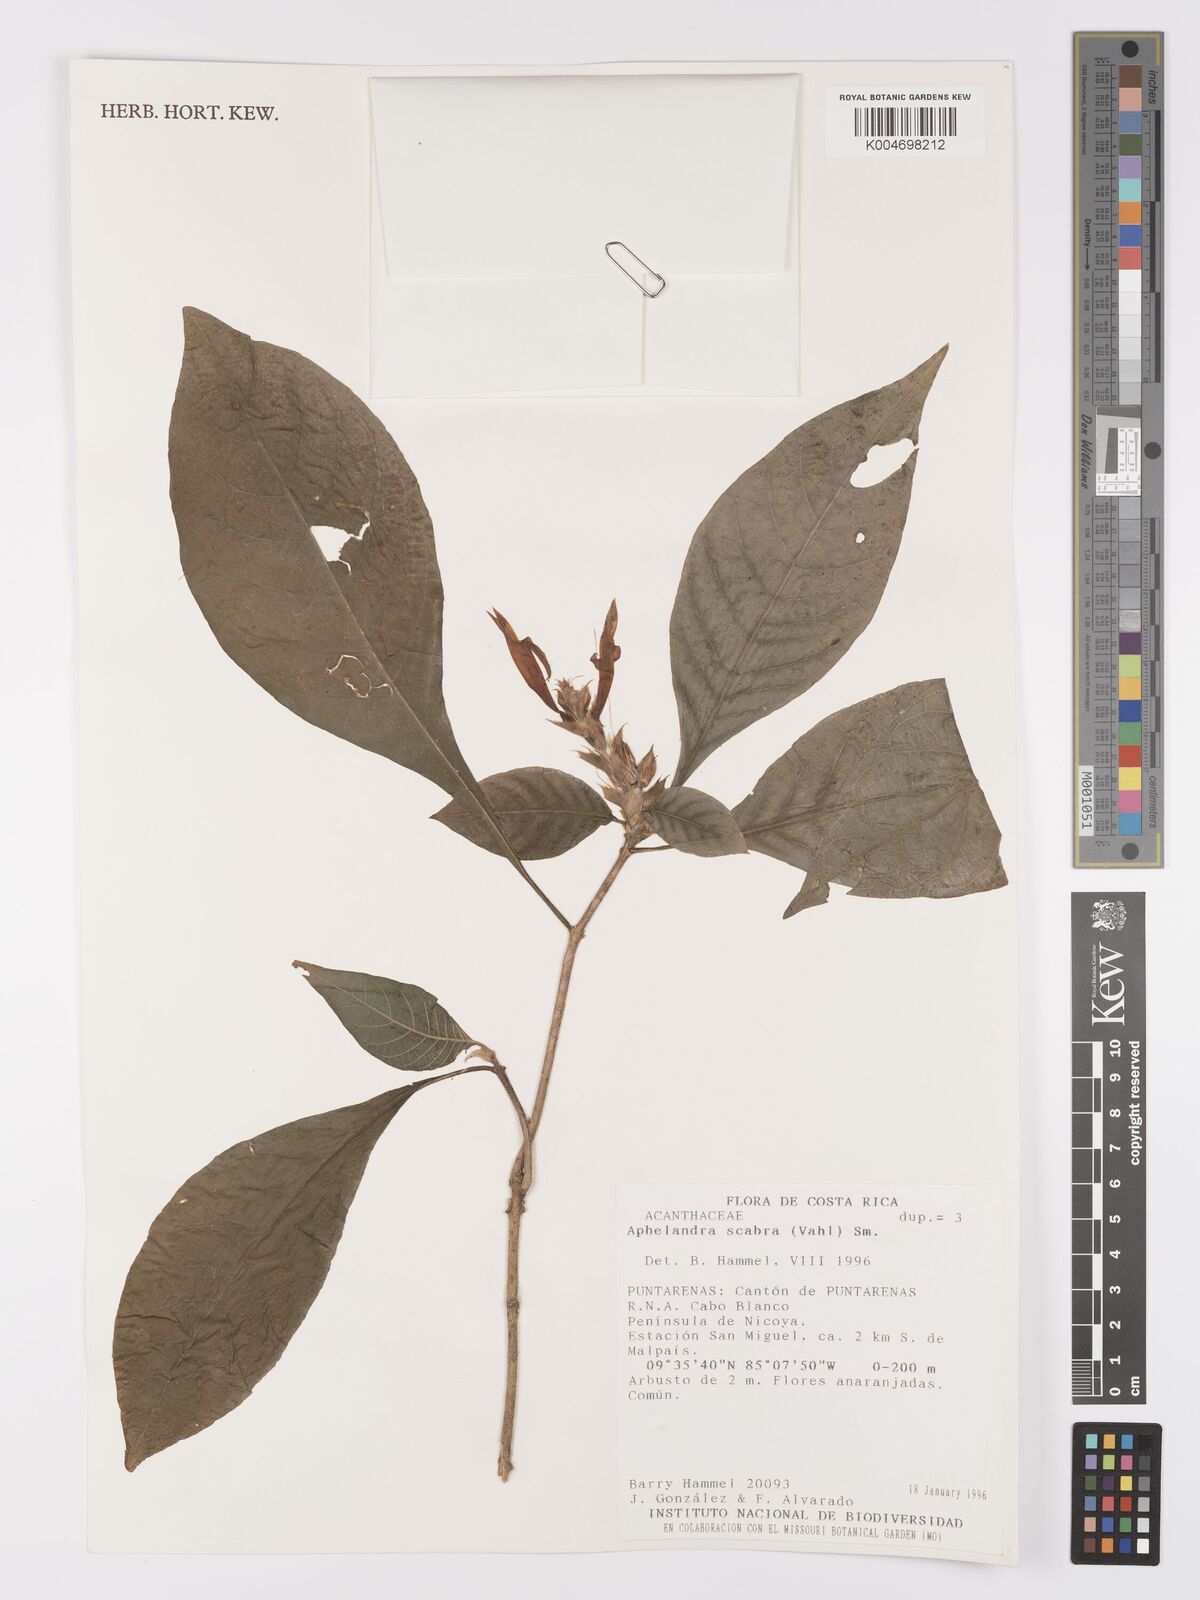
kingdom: Plantae
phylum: Tracheophyta
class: Magnoliopsida
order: Lamiales
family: Acanthaceae
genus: Aphelandra
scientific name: Aphelandra scabra
